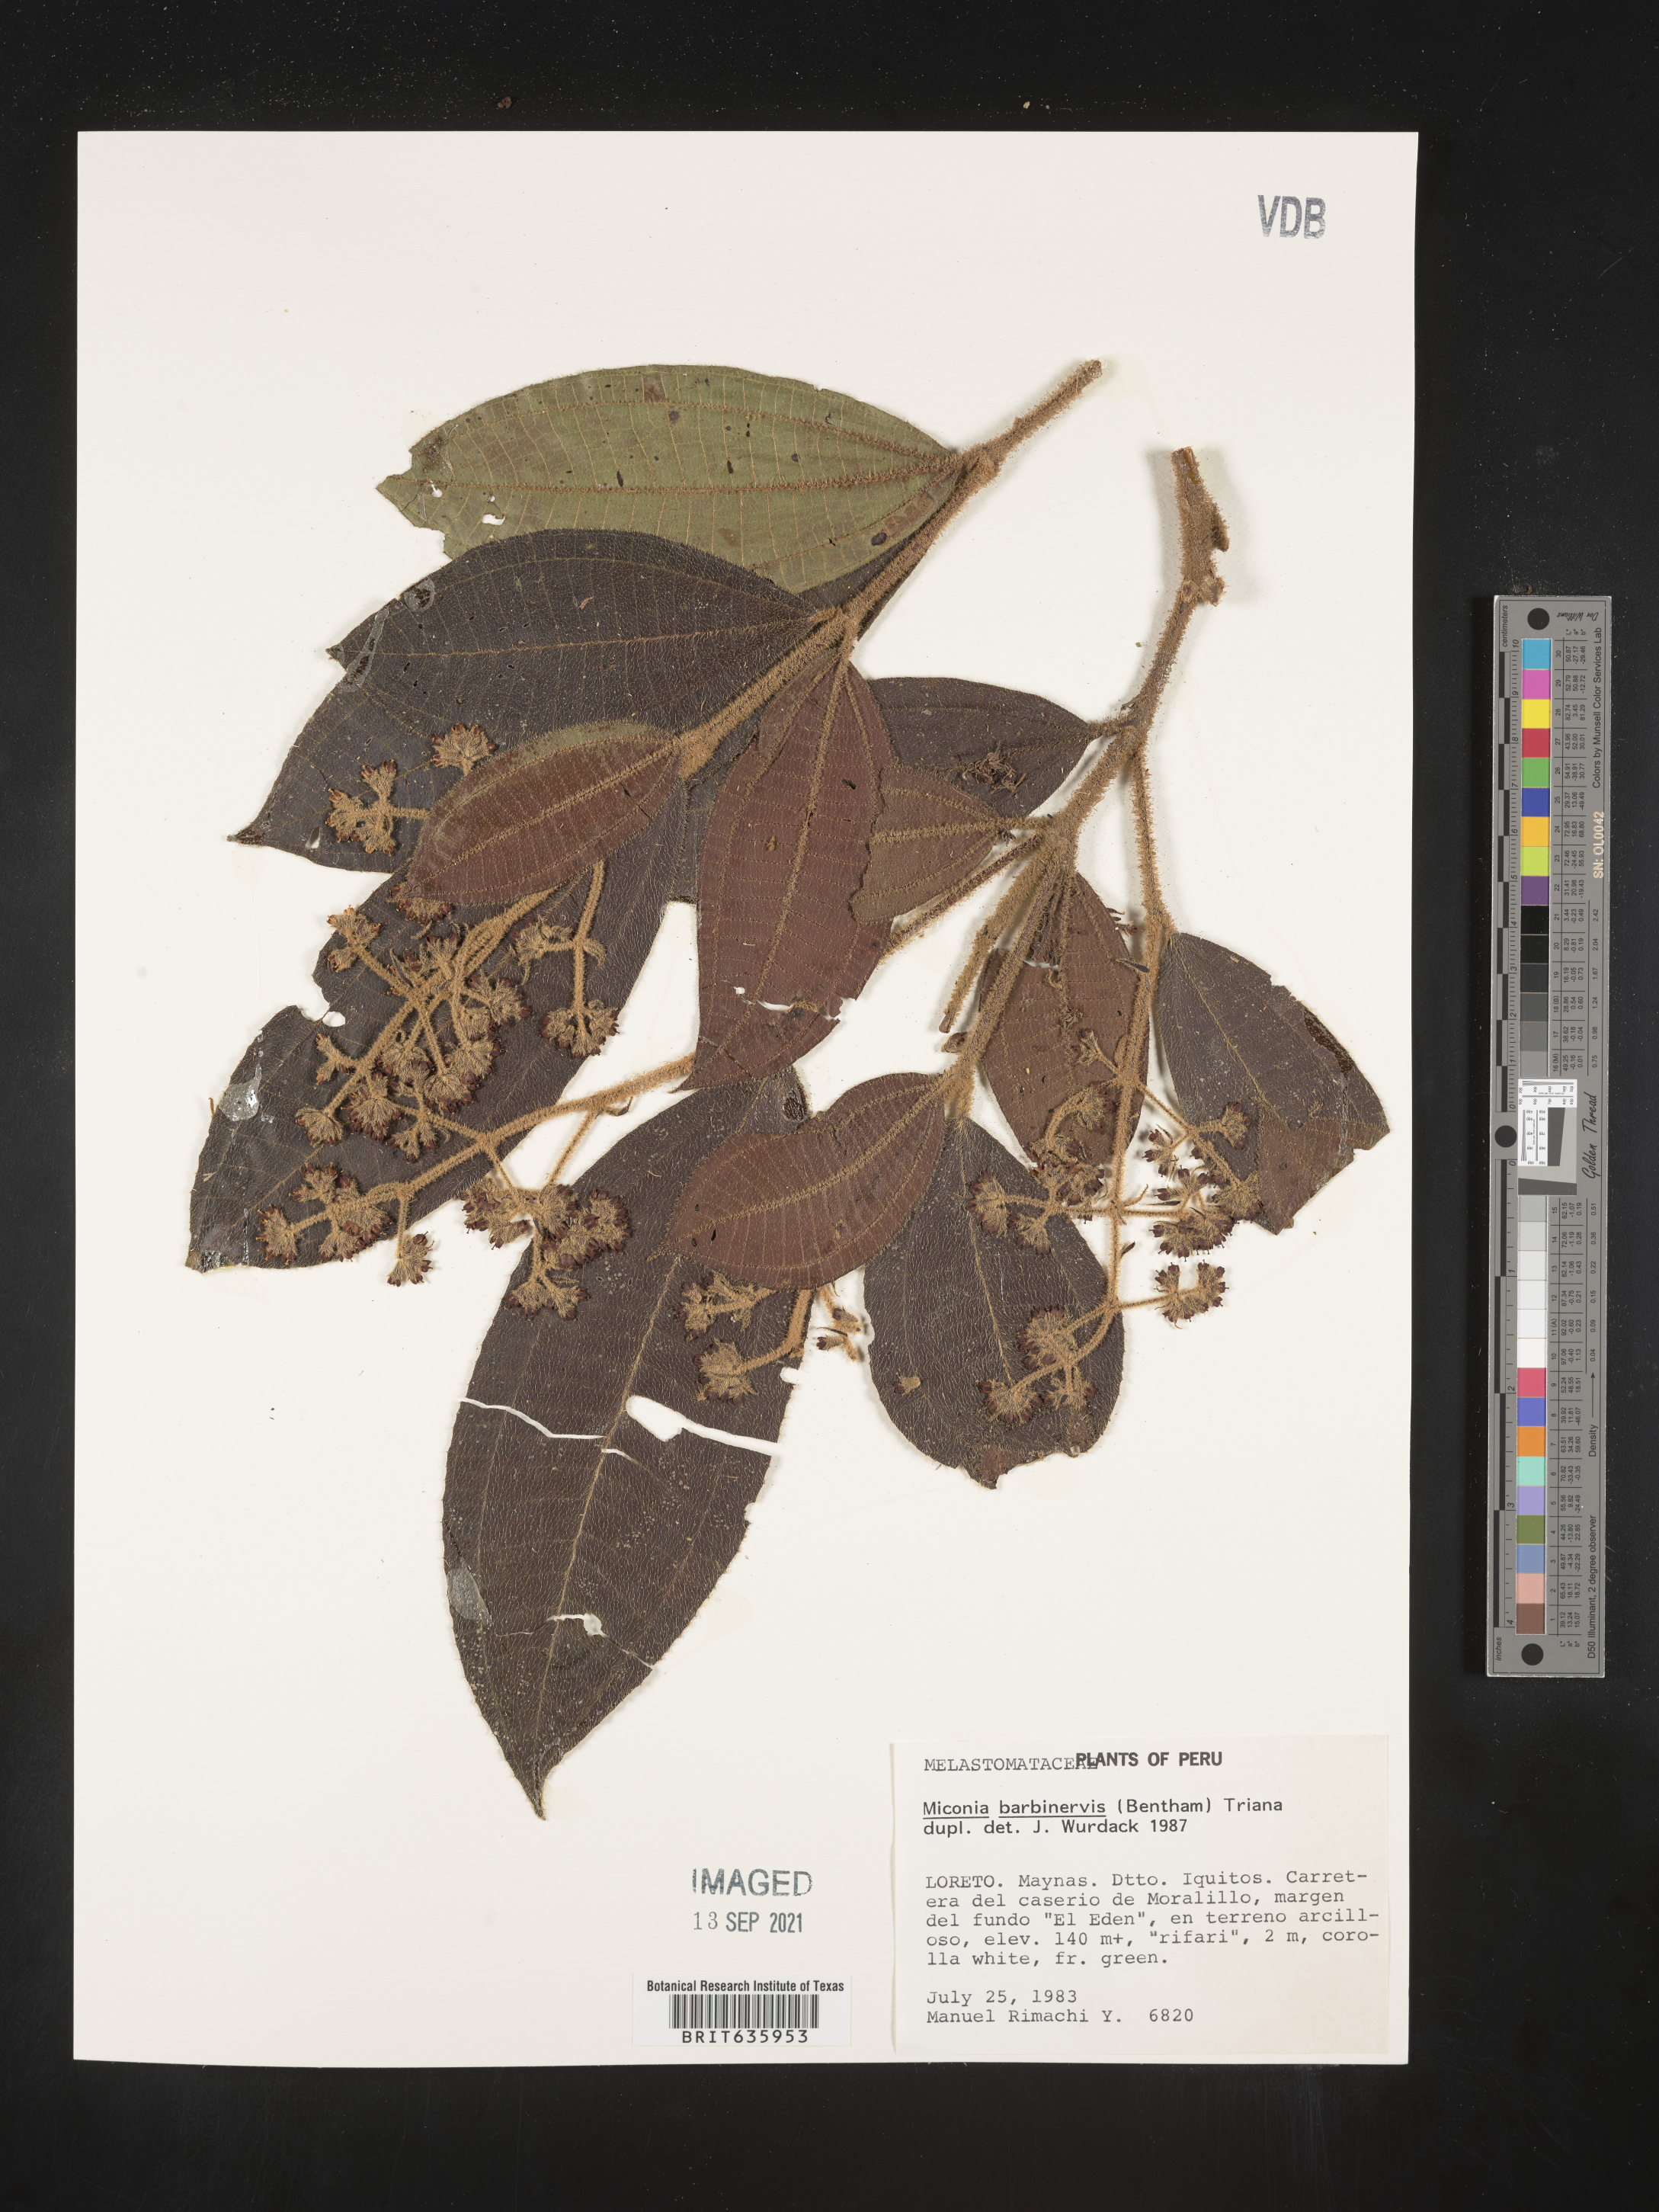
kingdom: Plantae
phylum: Tracheophyta
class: Magnoliopsida
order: Myrtales
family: Melastomataceae
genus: Miconia
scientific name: Miconia
